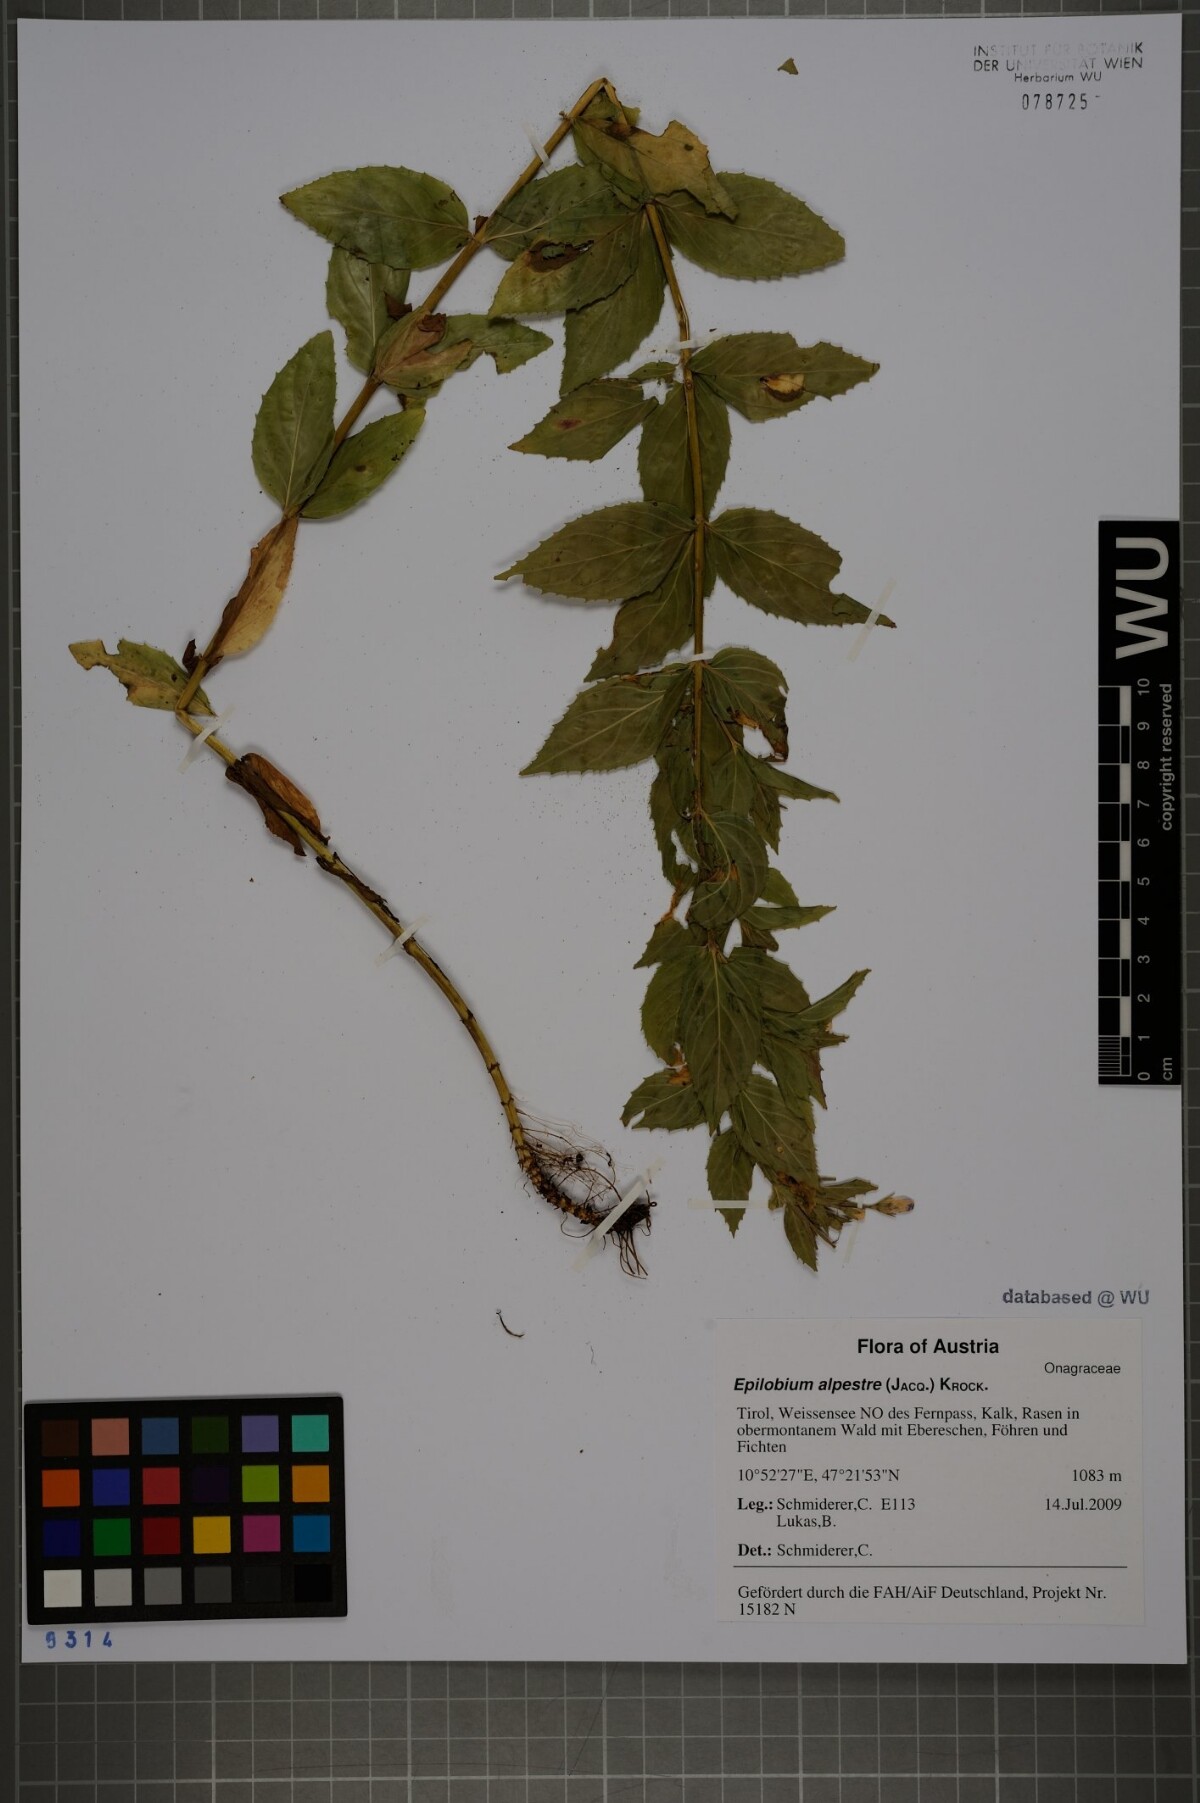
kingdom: Plantae
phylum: Tracheophyta
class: Magnoliopsida
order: Myrtales
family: Onagraceae
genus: Epilobium
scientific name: Epilobium alpestre
